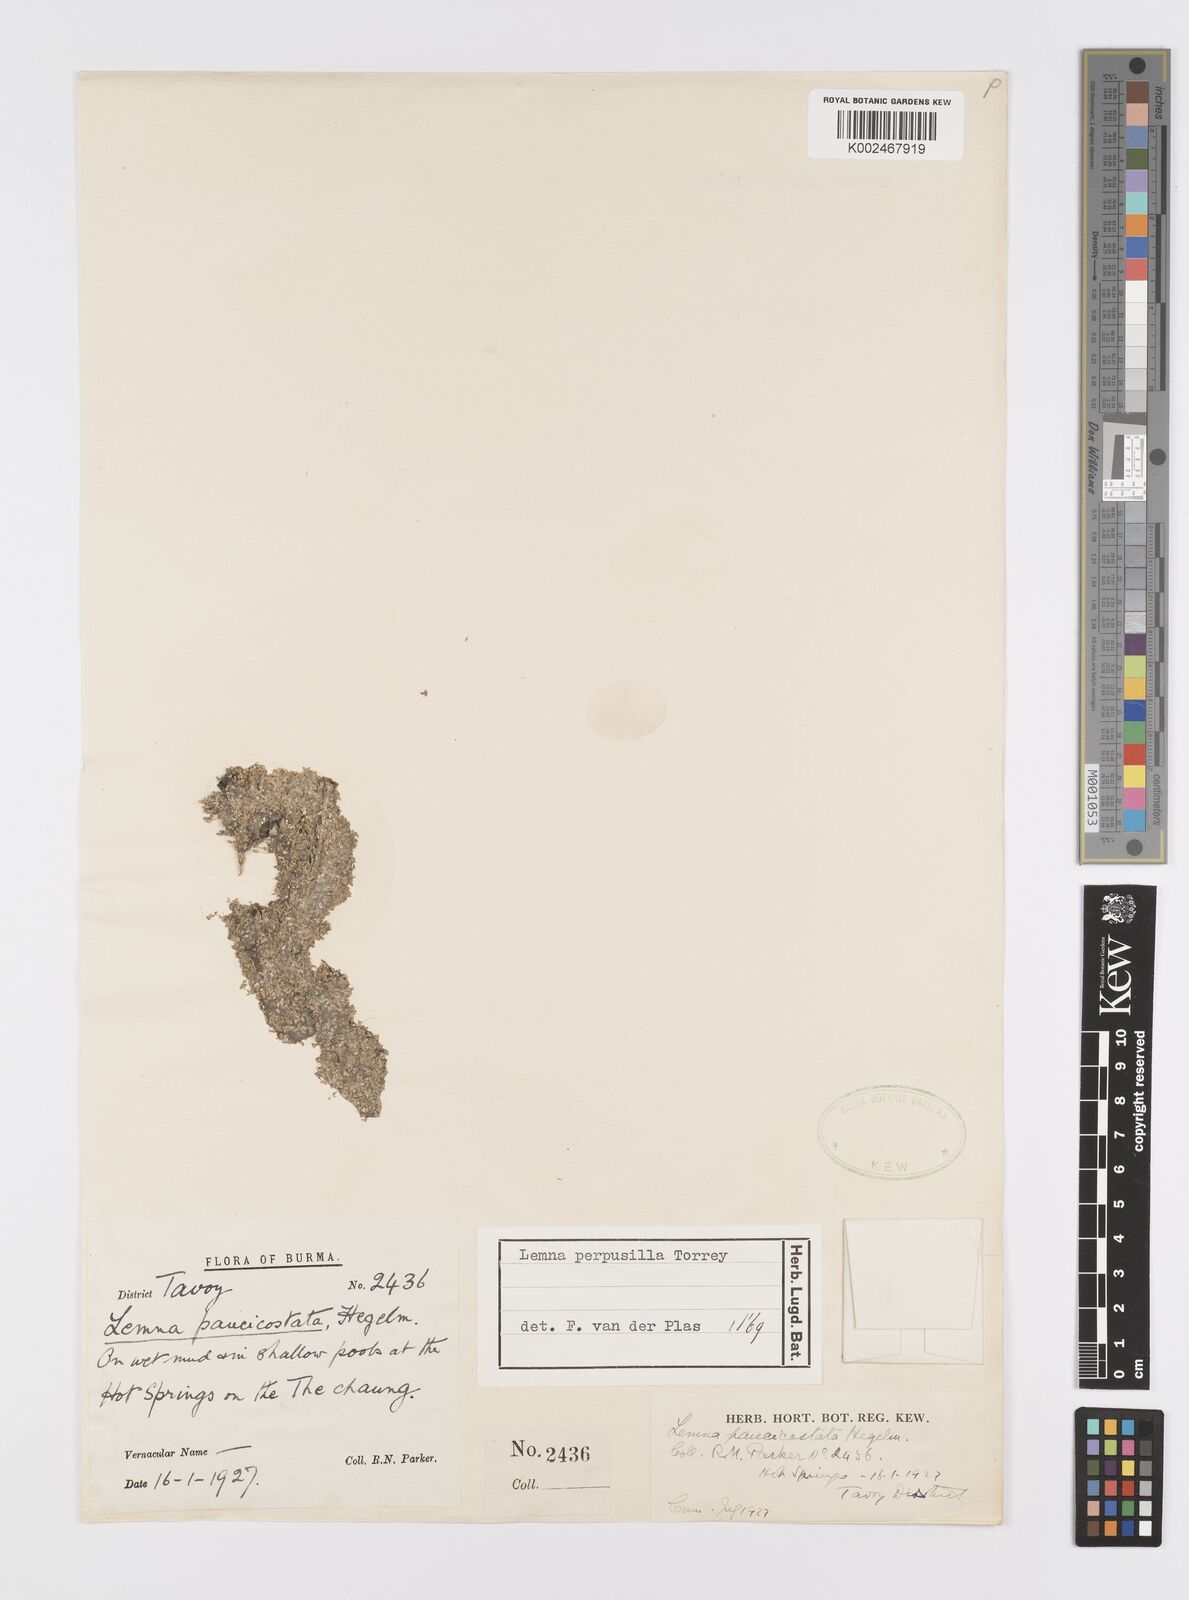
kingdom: Plantae
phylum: Tracheophyta
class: Liliopsida
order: Alismatales
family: Araceae
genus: Lemna
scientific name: Lemna perpusilla
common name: Duckweed
